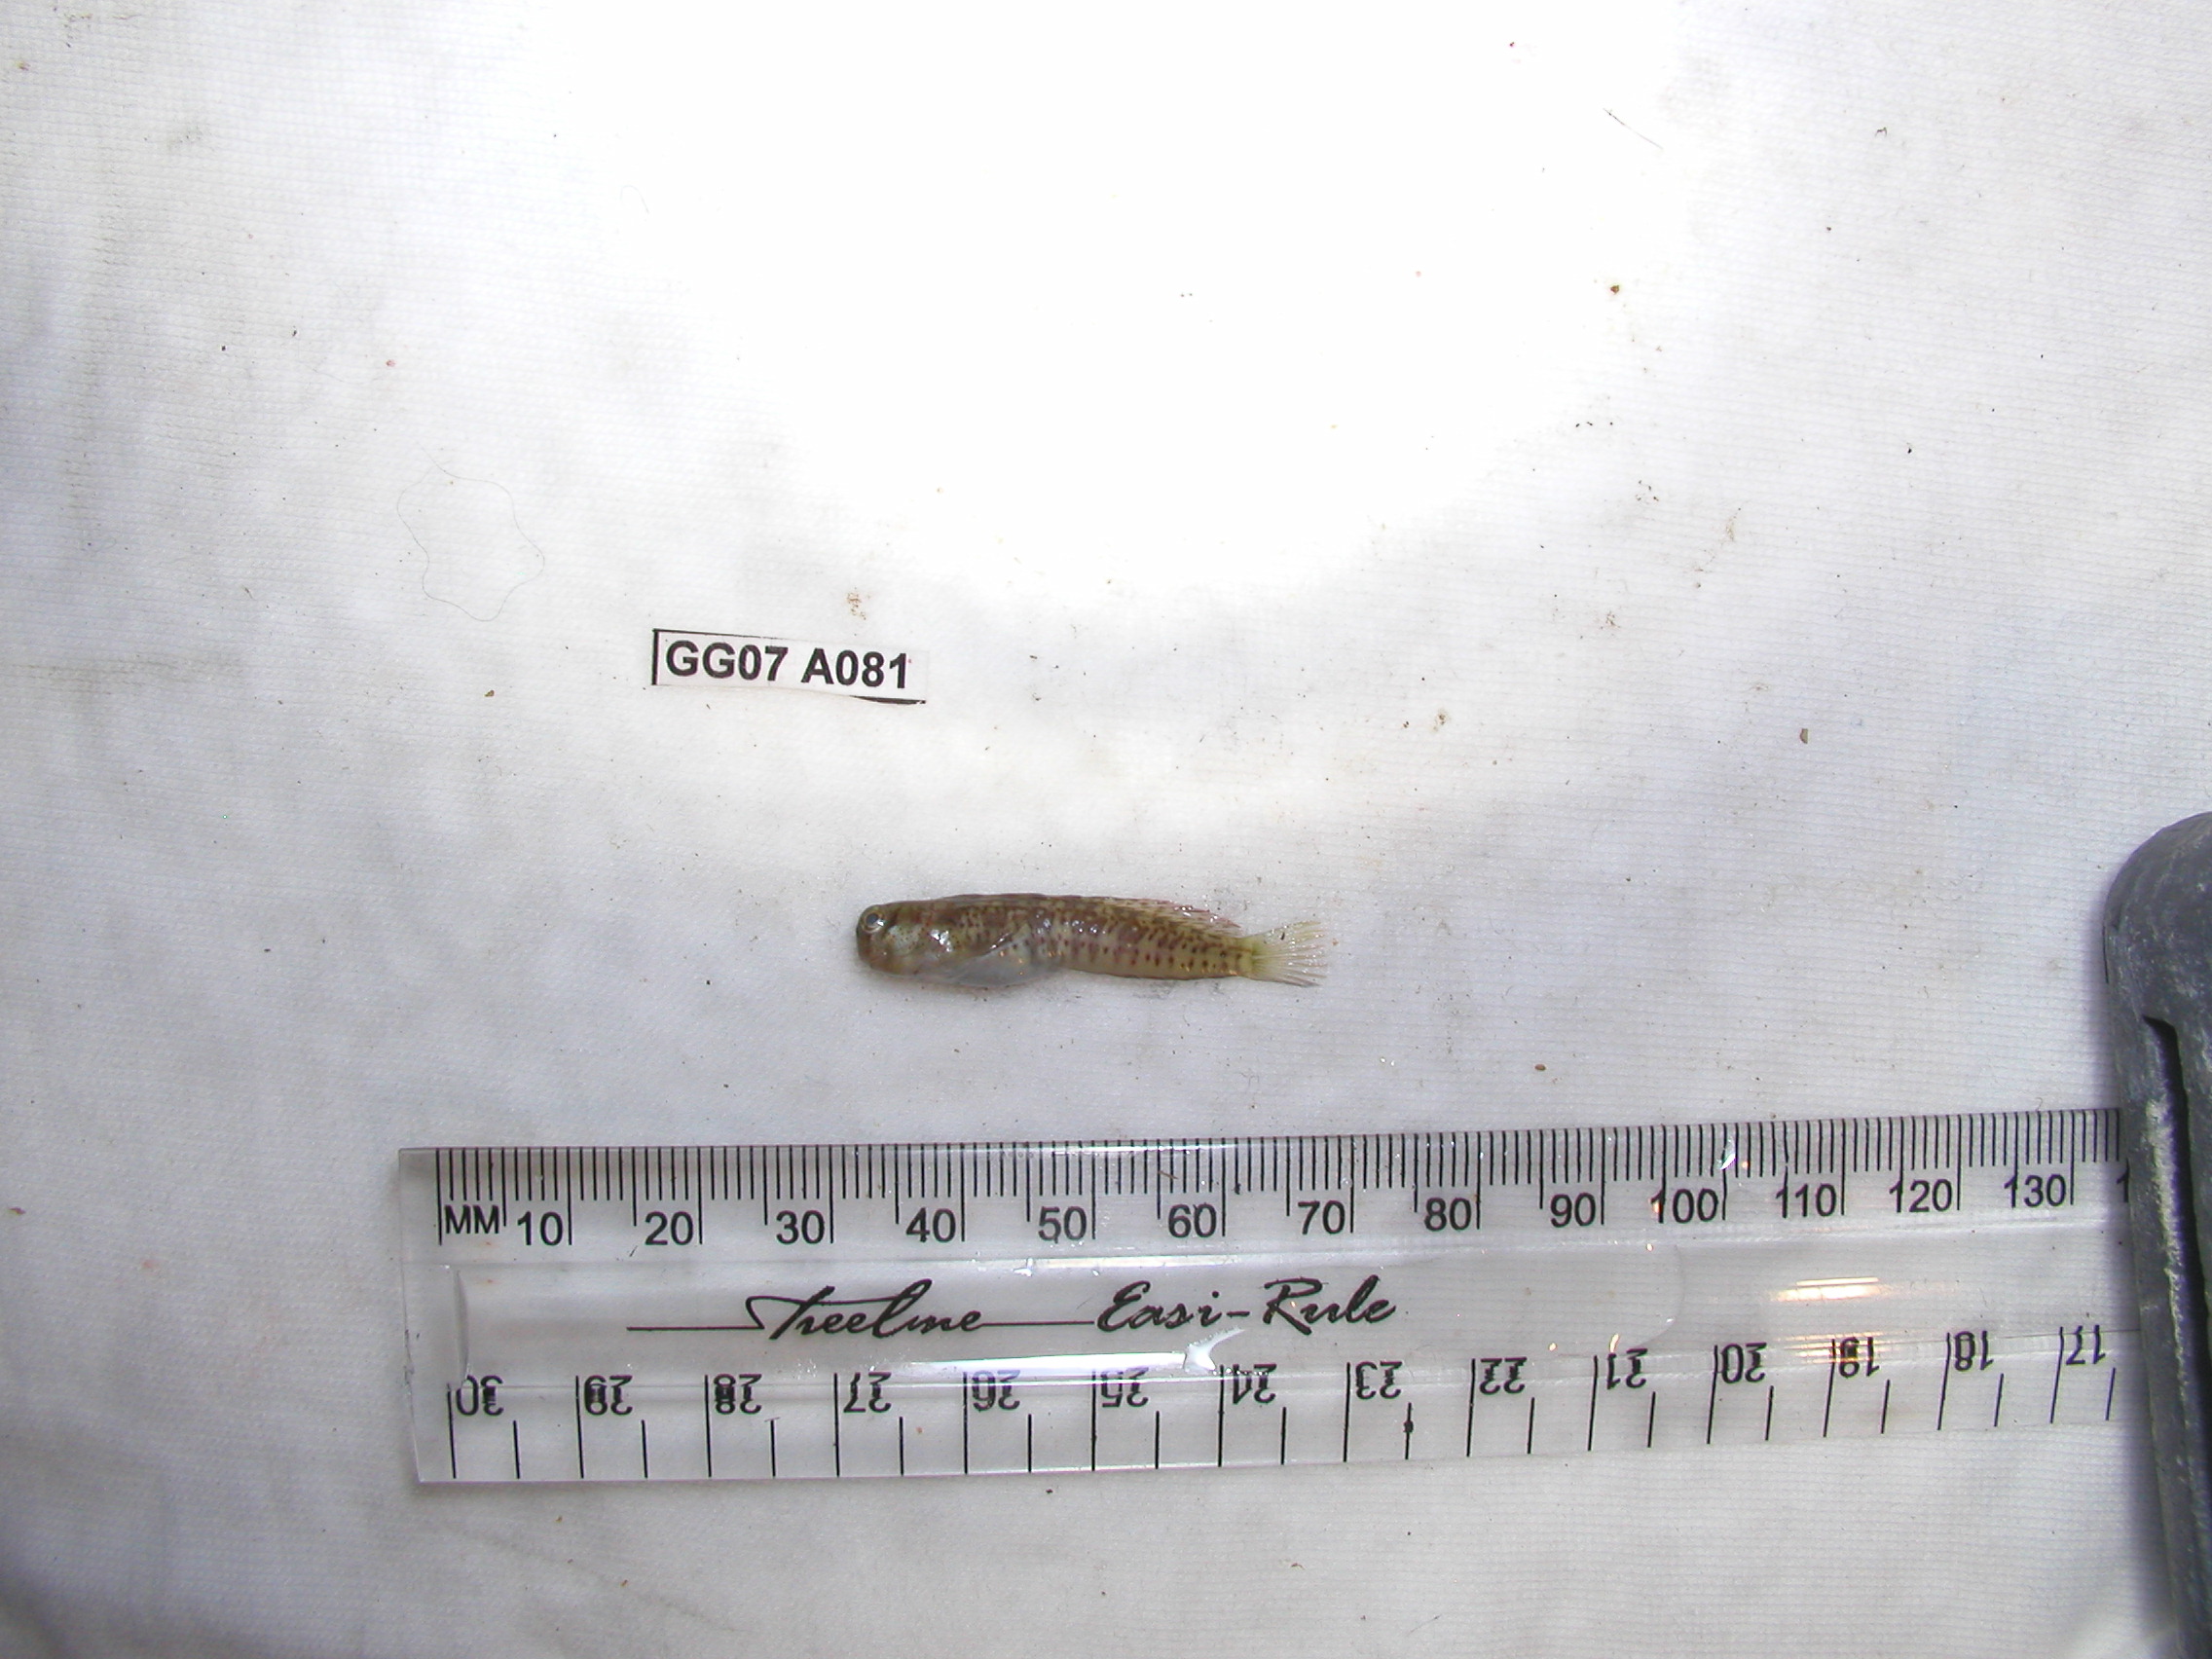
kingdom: Animalia
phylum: Chordata
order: Perciformes
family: Blenniidae
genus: Istiblennius
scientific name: Istiblennius bellus
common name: Beautiful rockskipper
